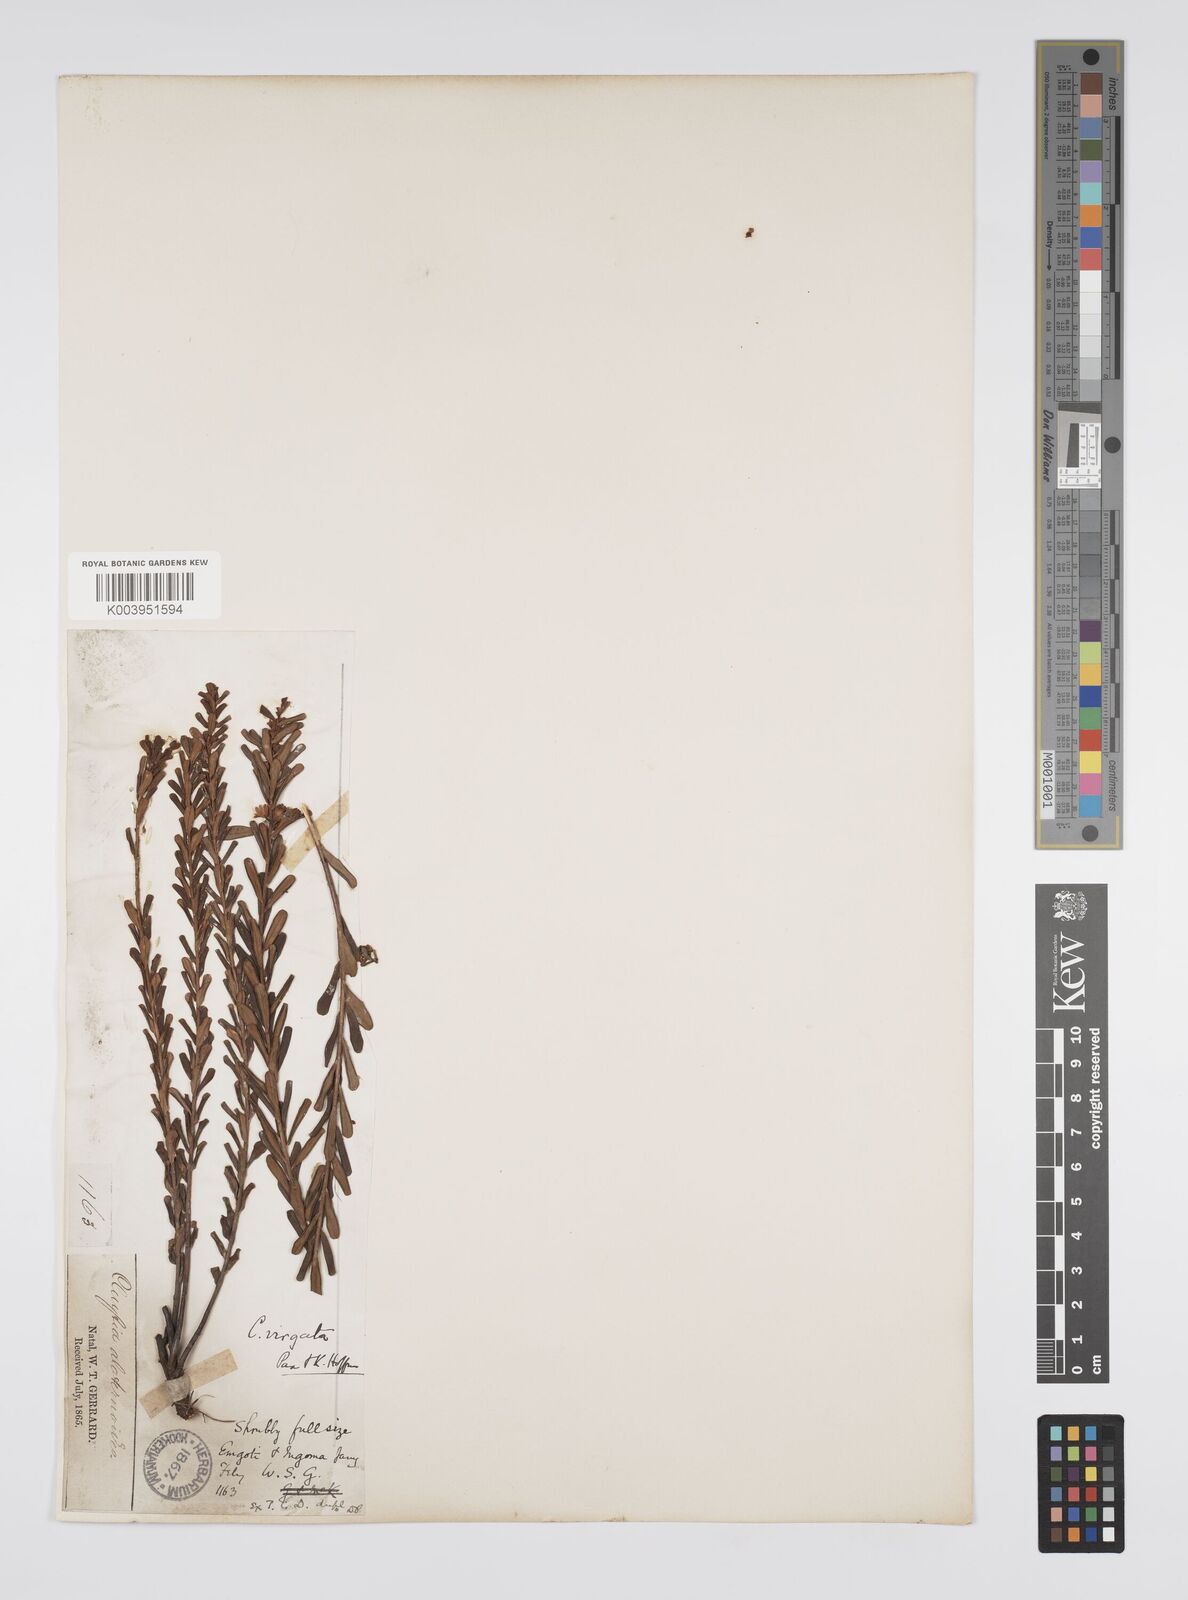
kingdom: Plantae
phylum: Tracheophyta
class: Magnoliopsida
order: Malpighiales
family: Peraceae
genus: Clutia
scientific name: Clutia virgata
